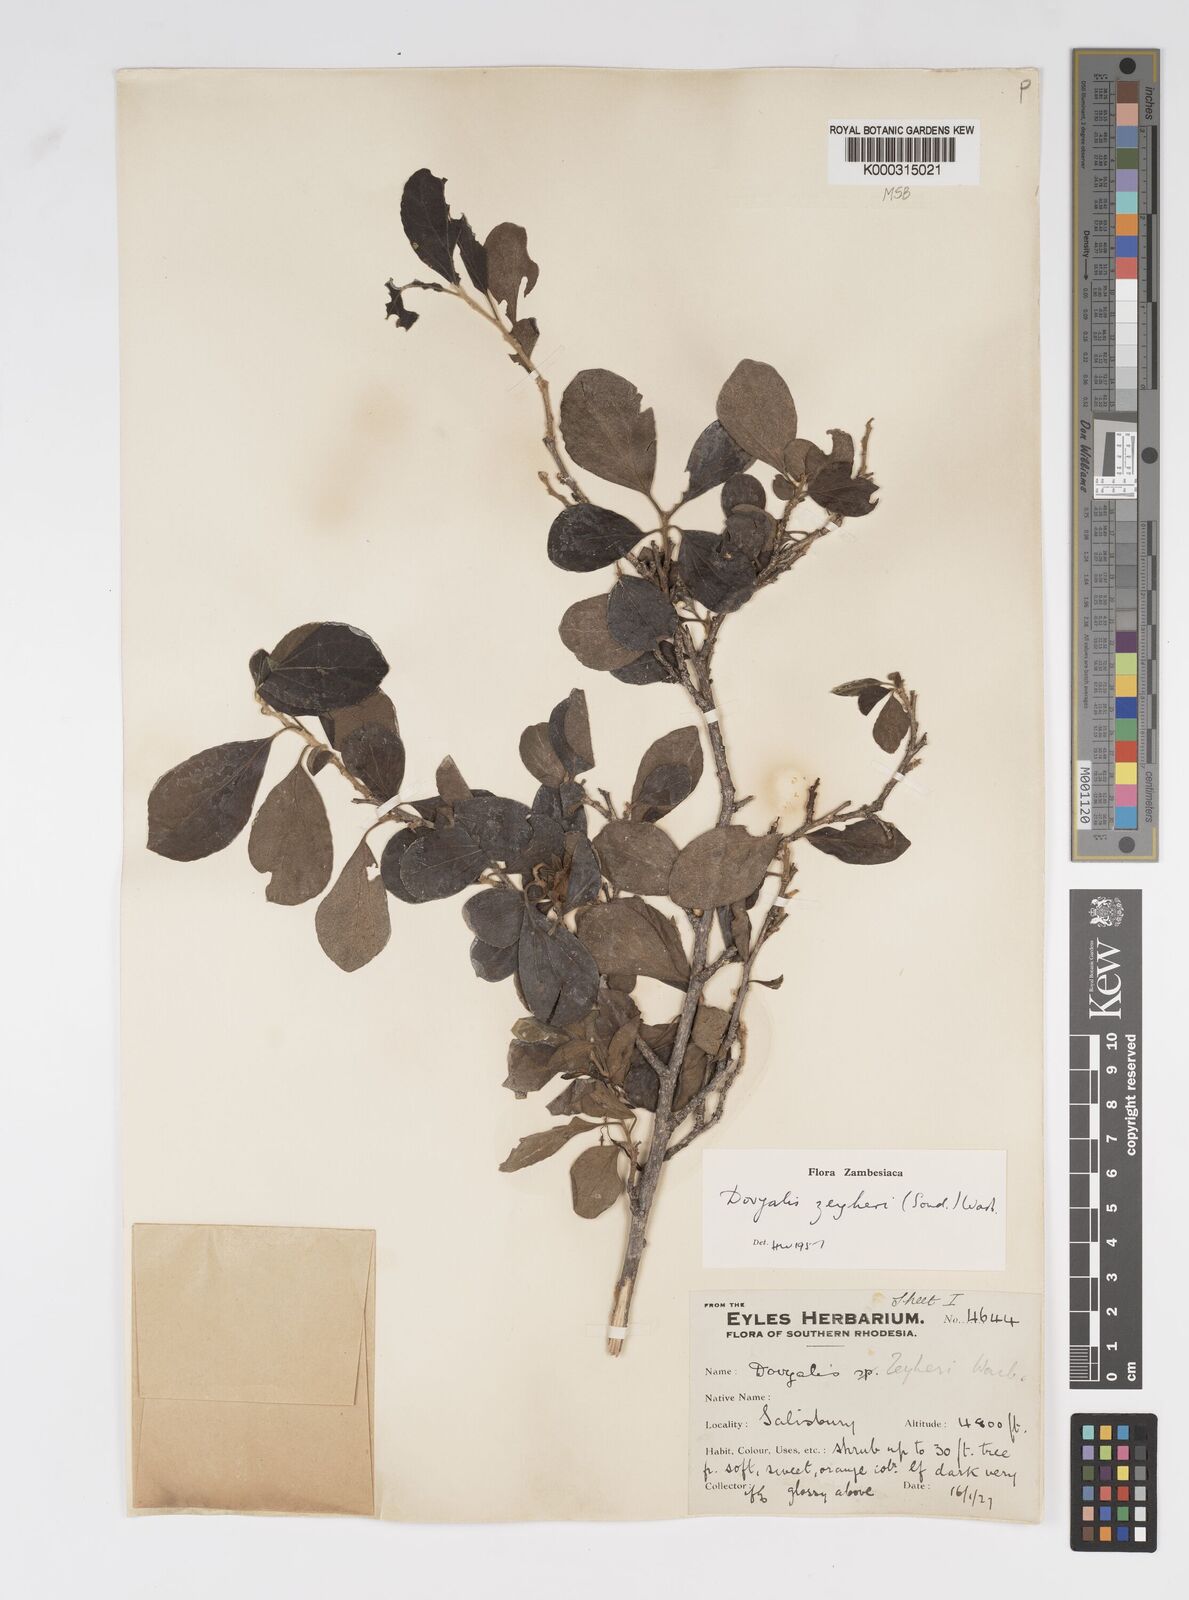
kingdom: Plantae
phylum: Tracheophyta
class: Magnoliopsida
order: Malpighiales
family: Salicaceae
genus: Dovyalis
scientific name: Dovyalis zeyheri
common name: Apricot sourberry
